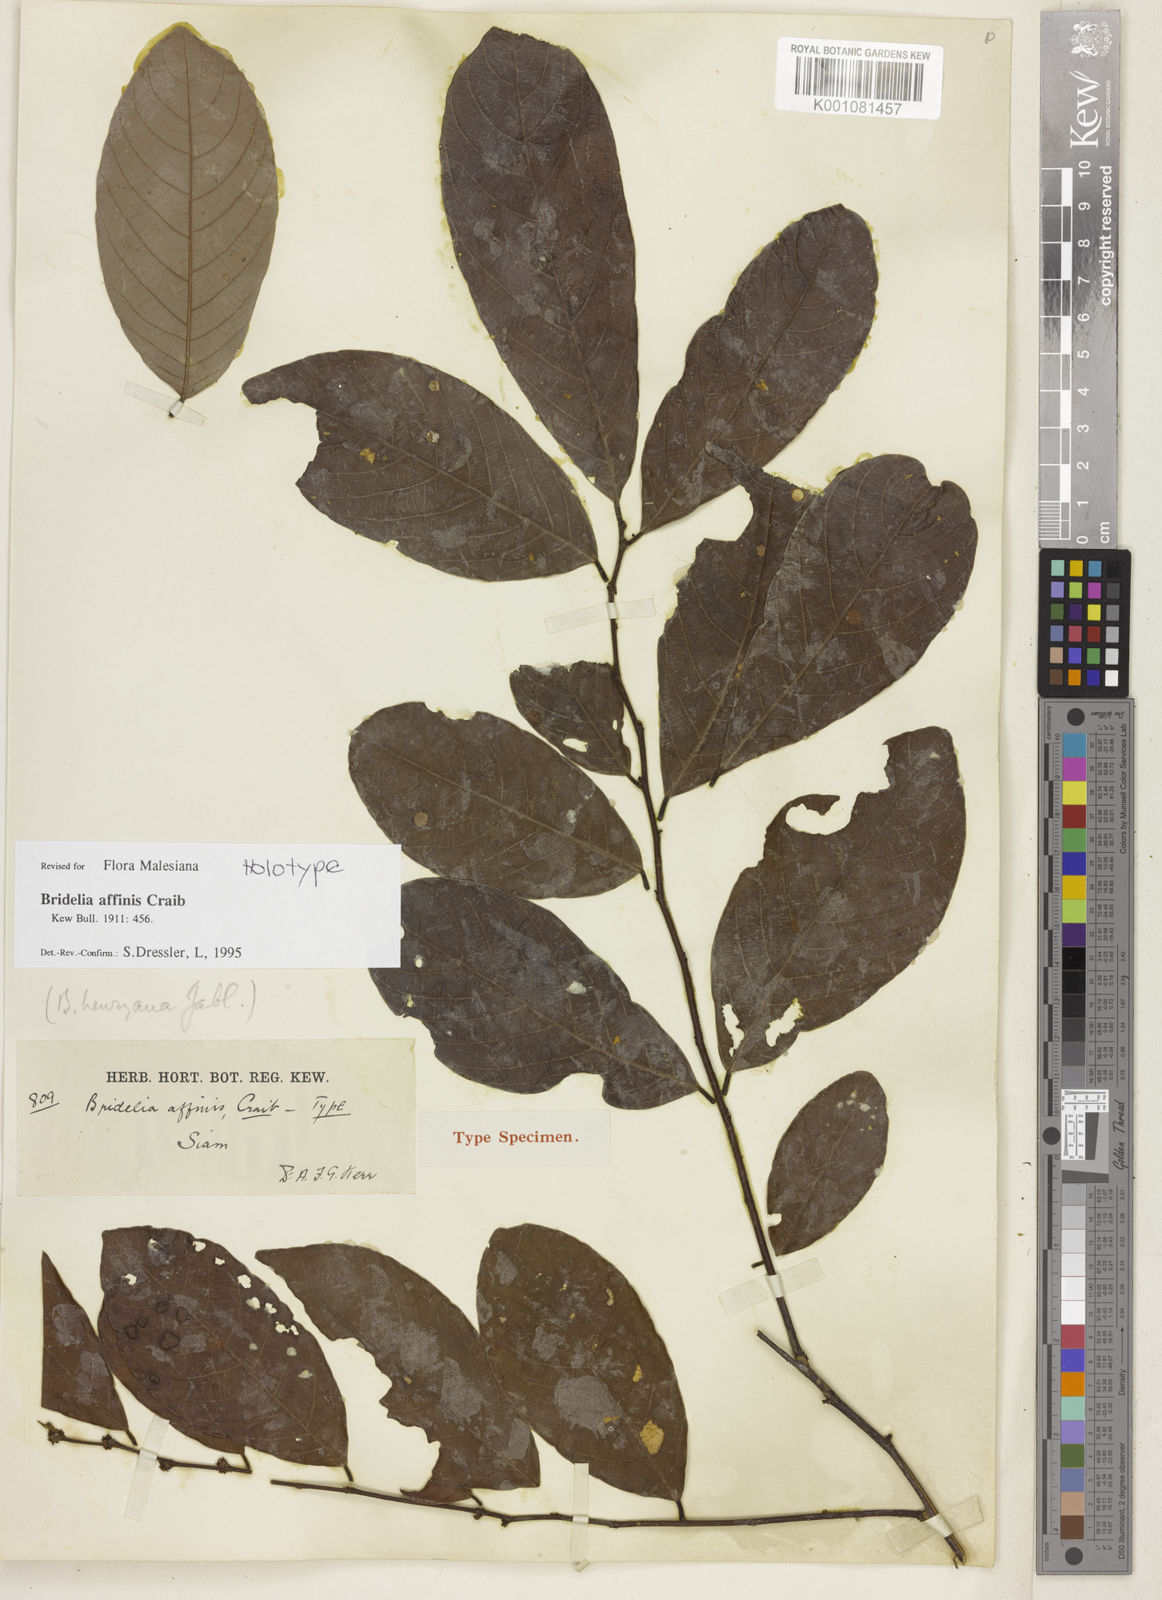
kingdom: Plantae
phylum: Tracheophyta
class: Magnoliopsida
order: Malpighiales
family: Phyllanthaceae
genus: Bridelia
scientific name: Bridelia affinis
